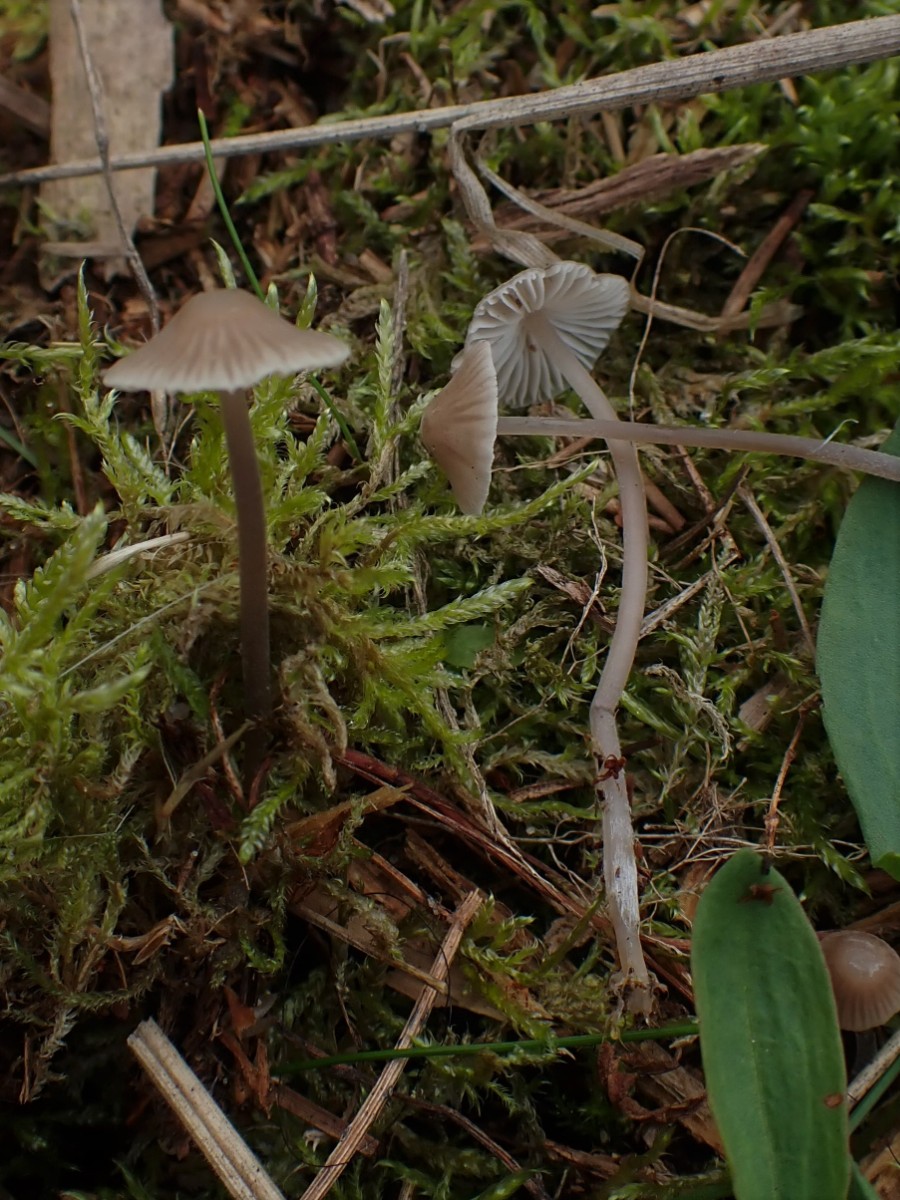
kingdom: Fungi
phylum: Basidiomycota
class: Agaricomycetes
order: Agaricales
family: Mycenaceae
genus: Mycena
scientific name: Mycena leptocephala
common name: klor-huesvamp
